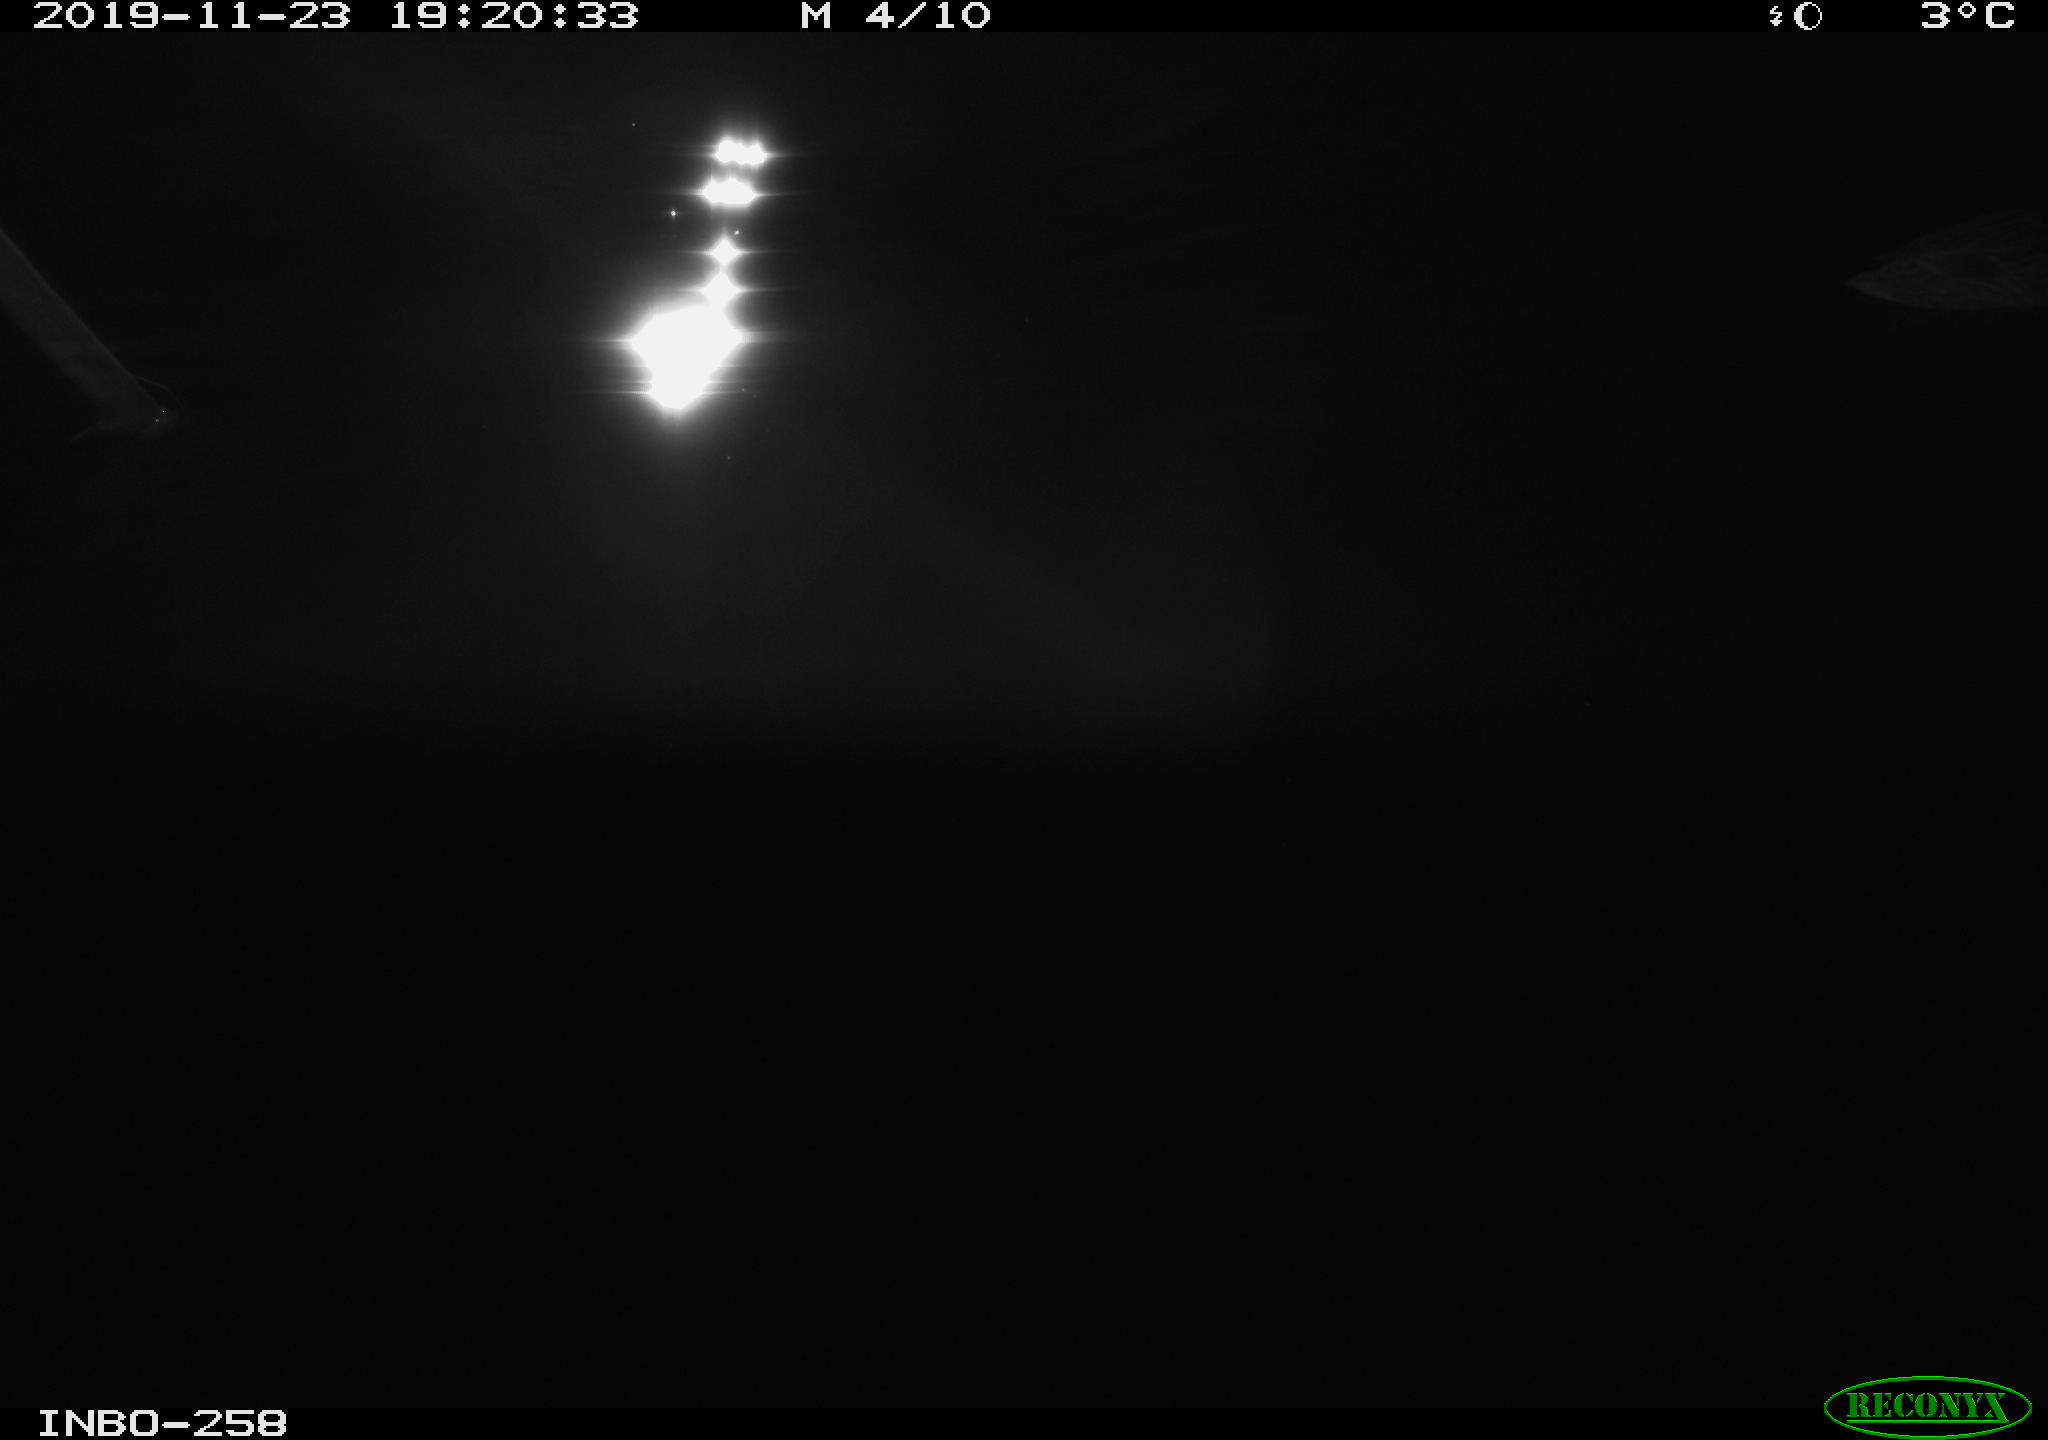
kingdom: Animalia
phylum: Chordata
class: Aves
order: Anseriformes
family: Anatidae
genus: Anas
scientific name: Anas platyrhynchos
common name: Mallard
